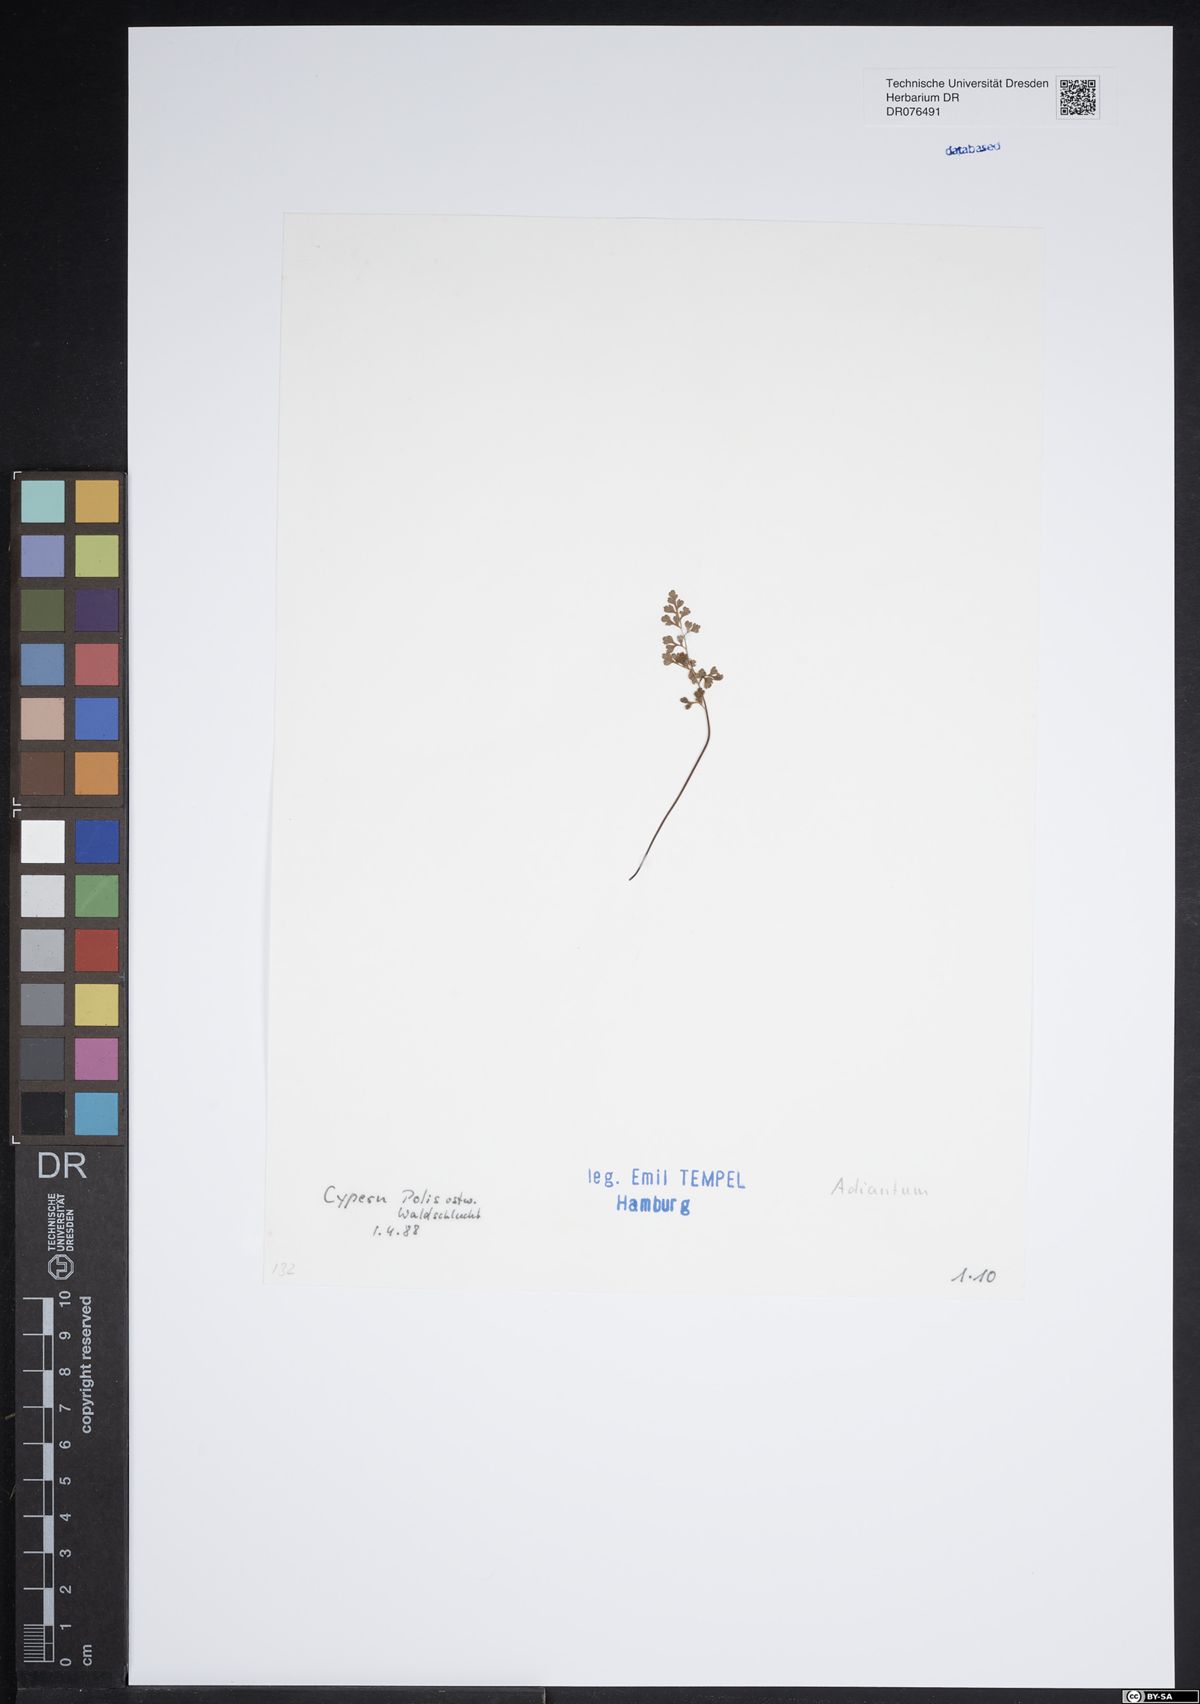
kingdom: Plantae
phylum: Tracheophyta
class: Polypodiopsida
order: Polypodiales
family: Pteridaceae
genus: Adiantum
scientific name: Adiantum
